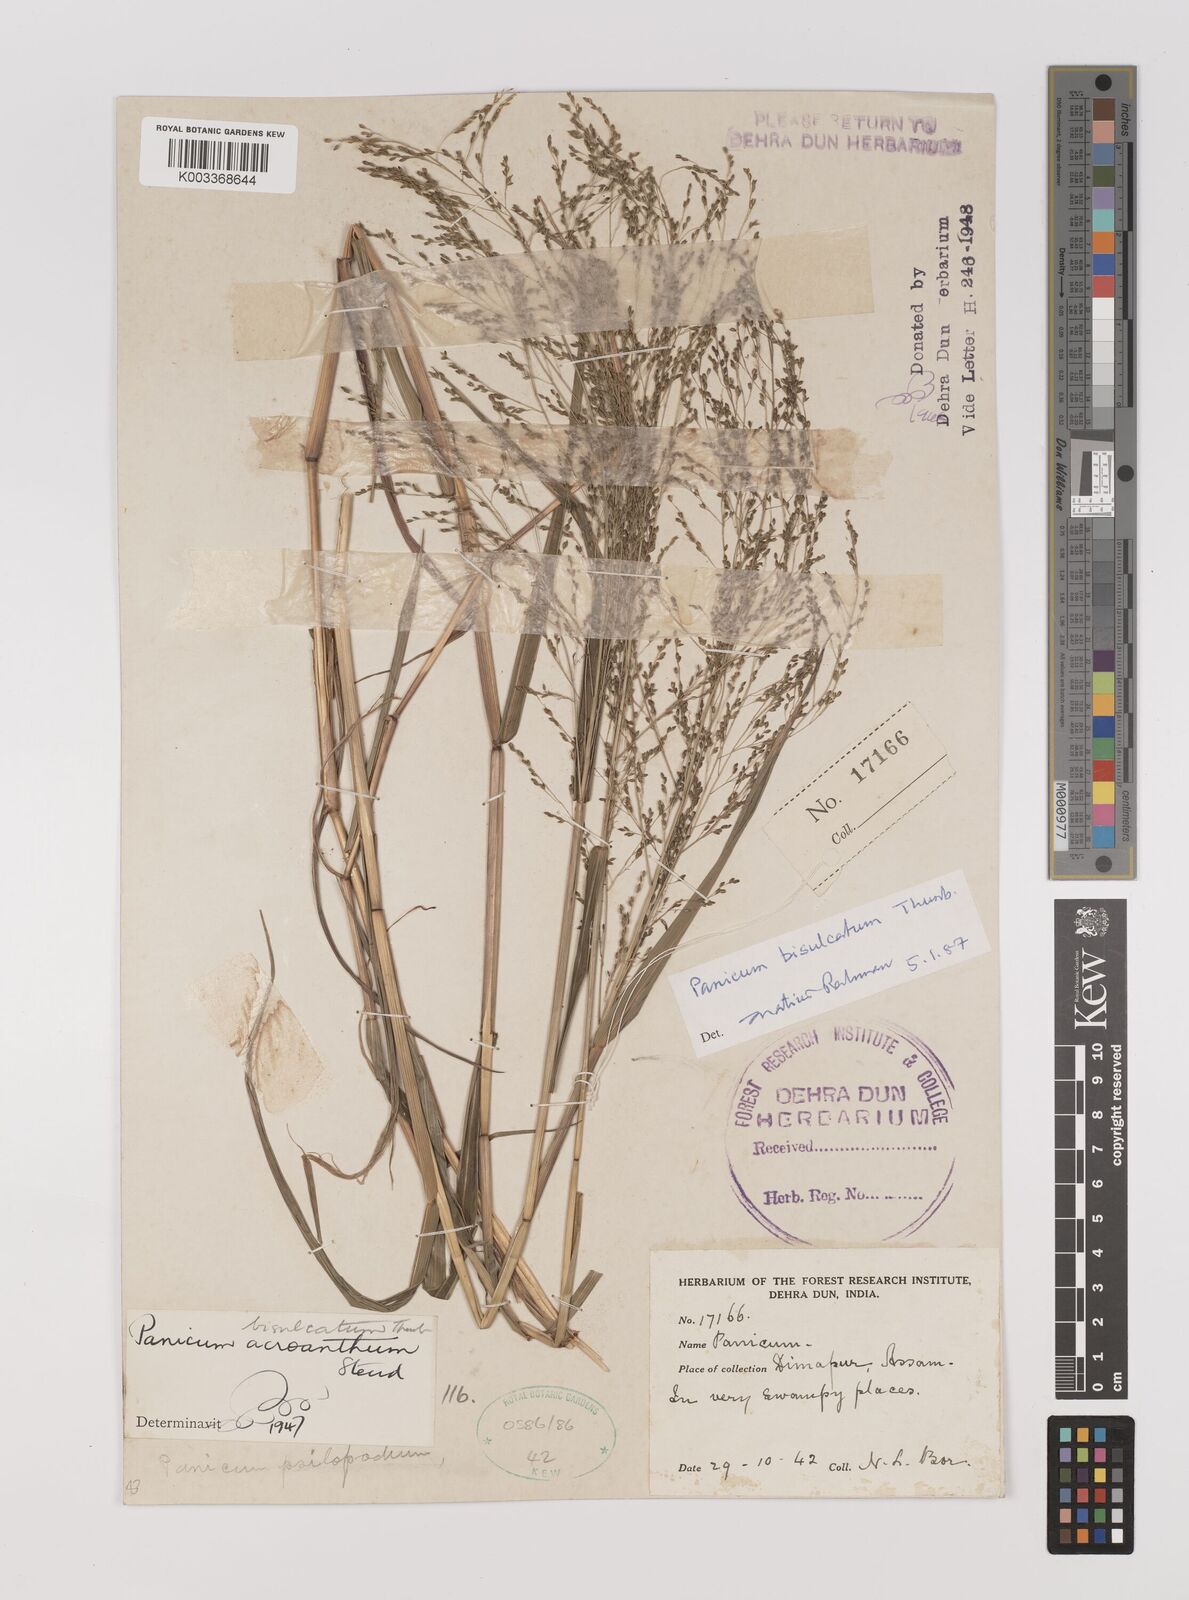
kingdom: Plantae
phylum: Tracheophyta
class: Liliopsida
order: Poales
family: Poaceae
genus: Panicum
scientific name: Panicum bisulcatum
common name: Japanese panicgrass
